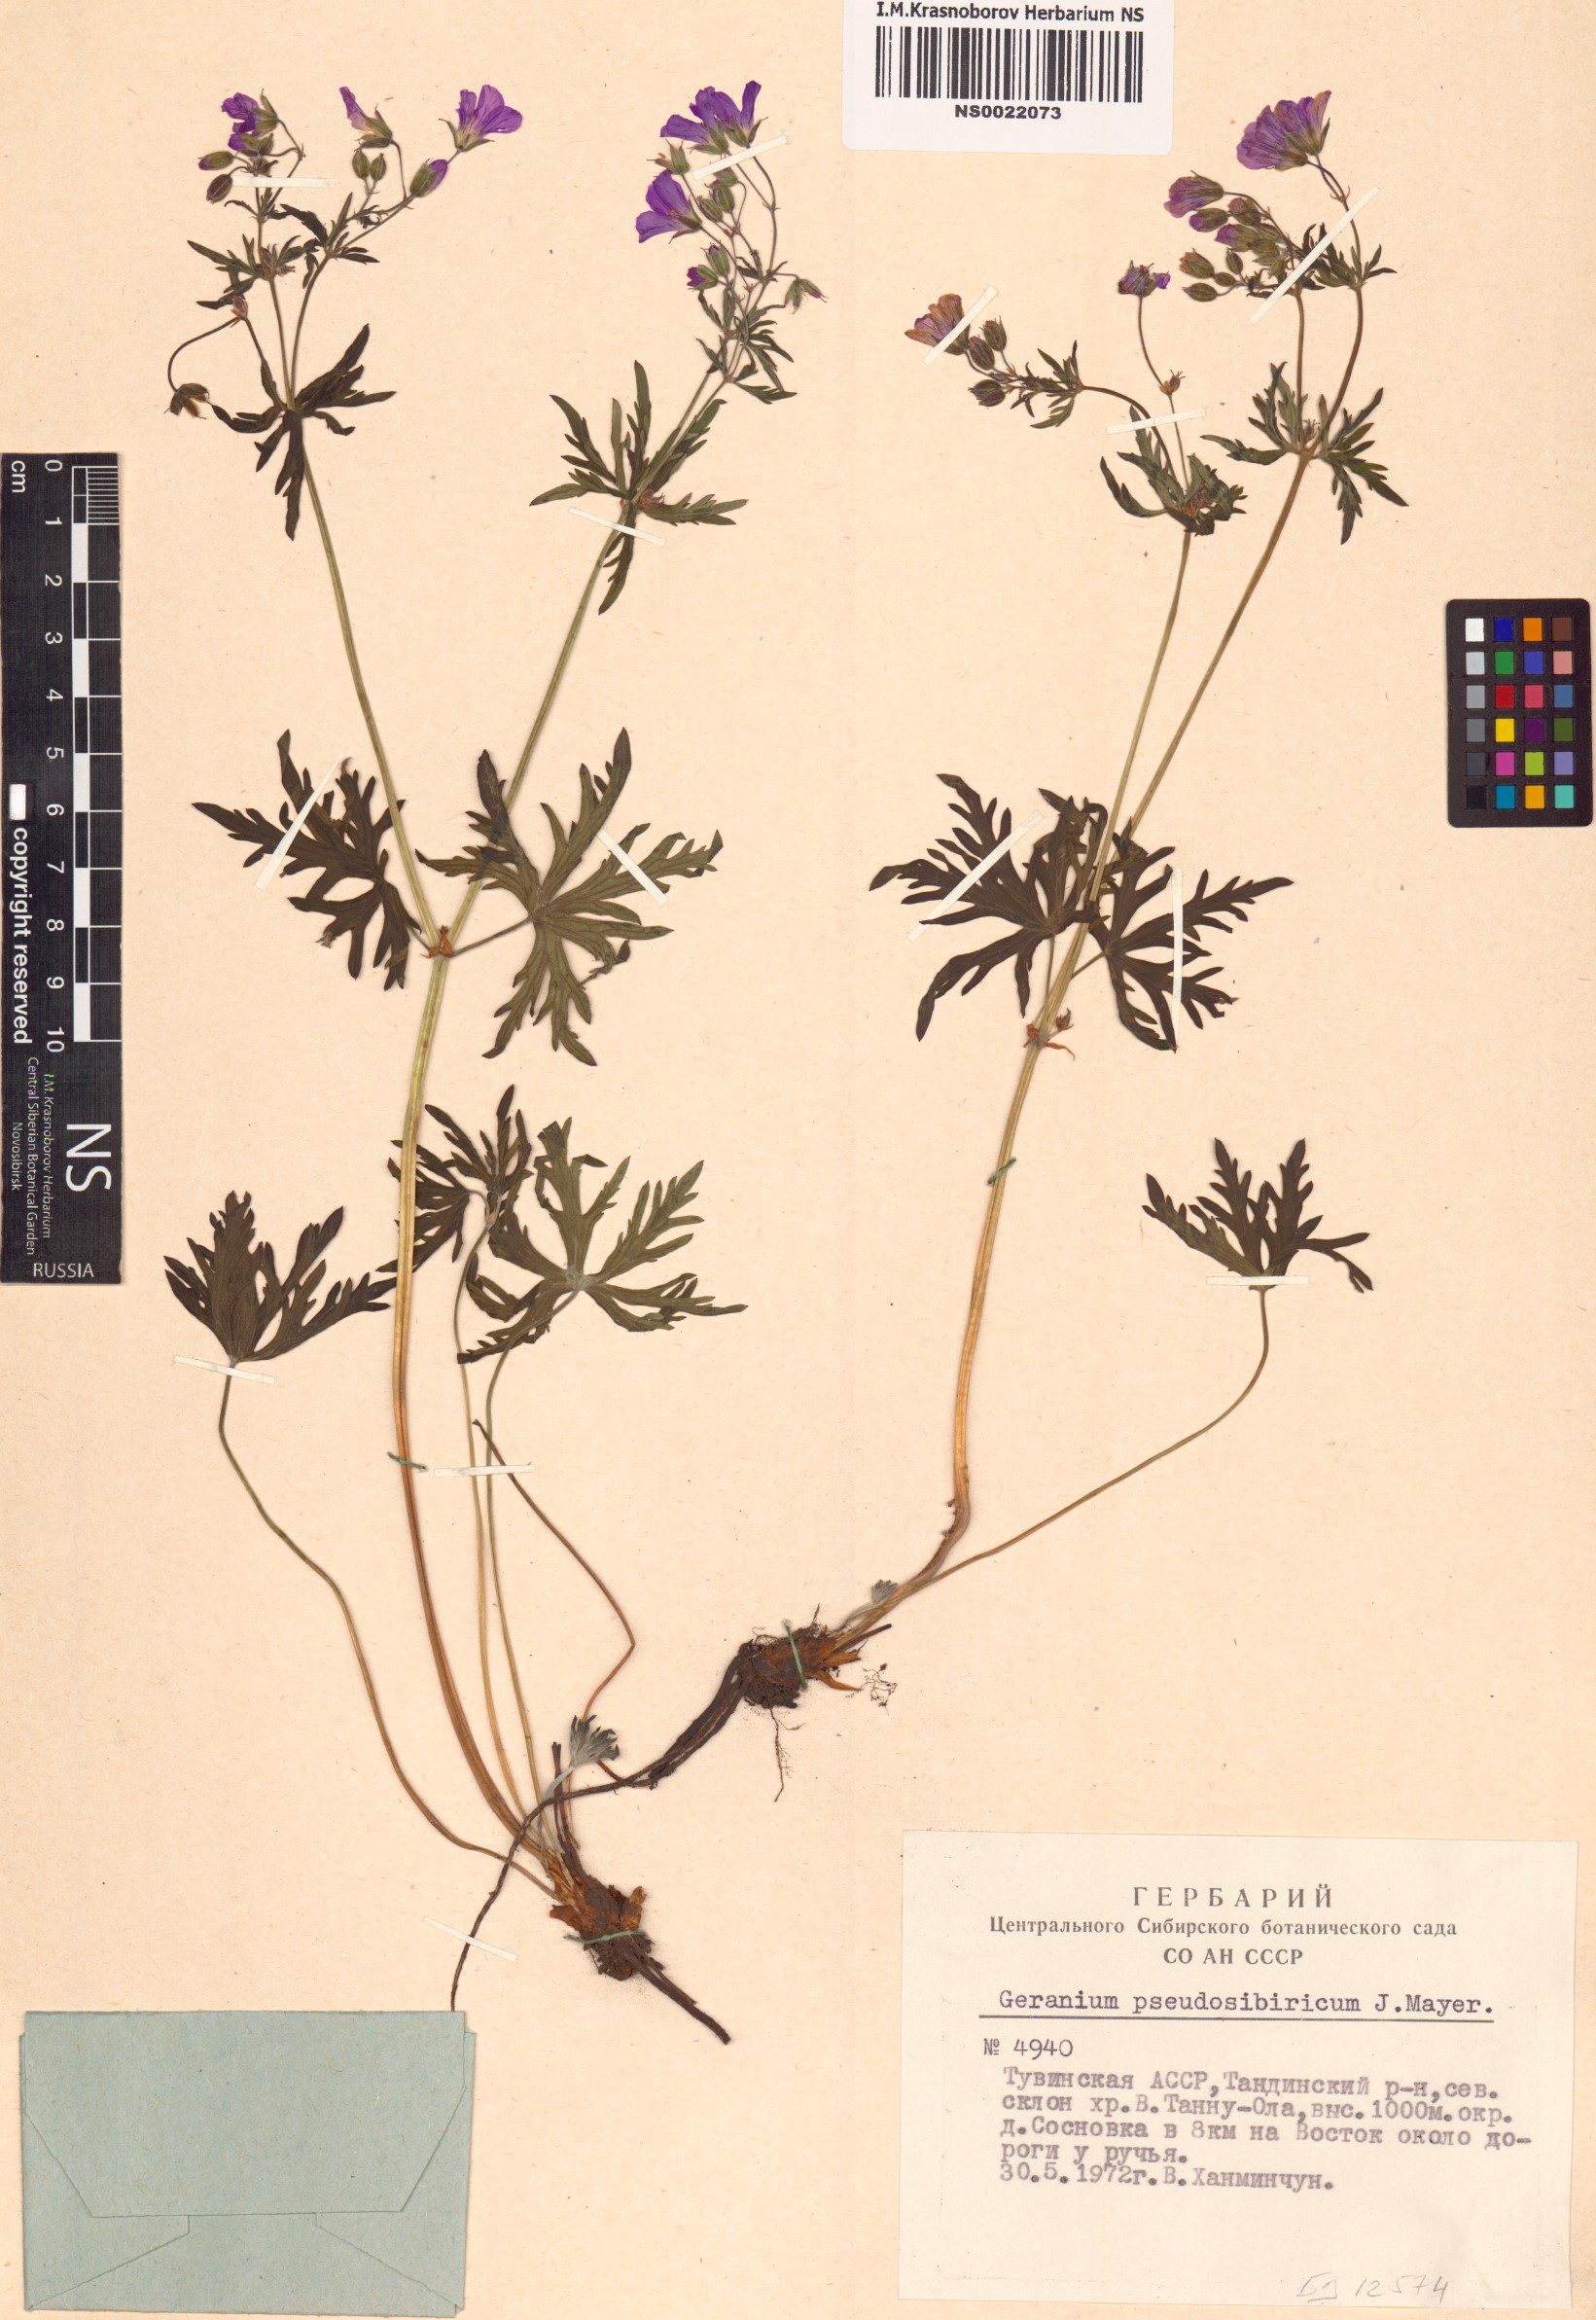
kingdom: Plantae
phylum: Tracheophyta
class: Magnoliopsida
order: Geraniales
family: Geraniaceae
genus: Geranium
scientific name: Geranium pseudosibiricum
